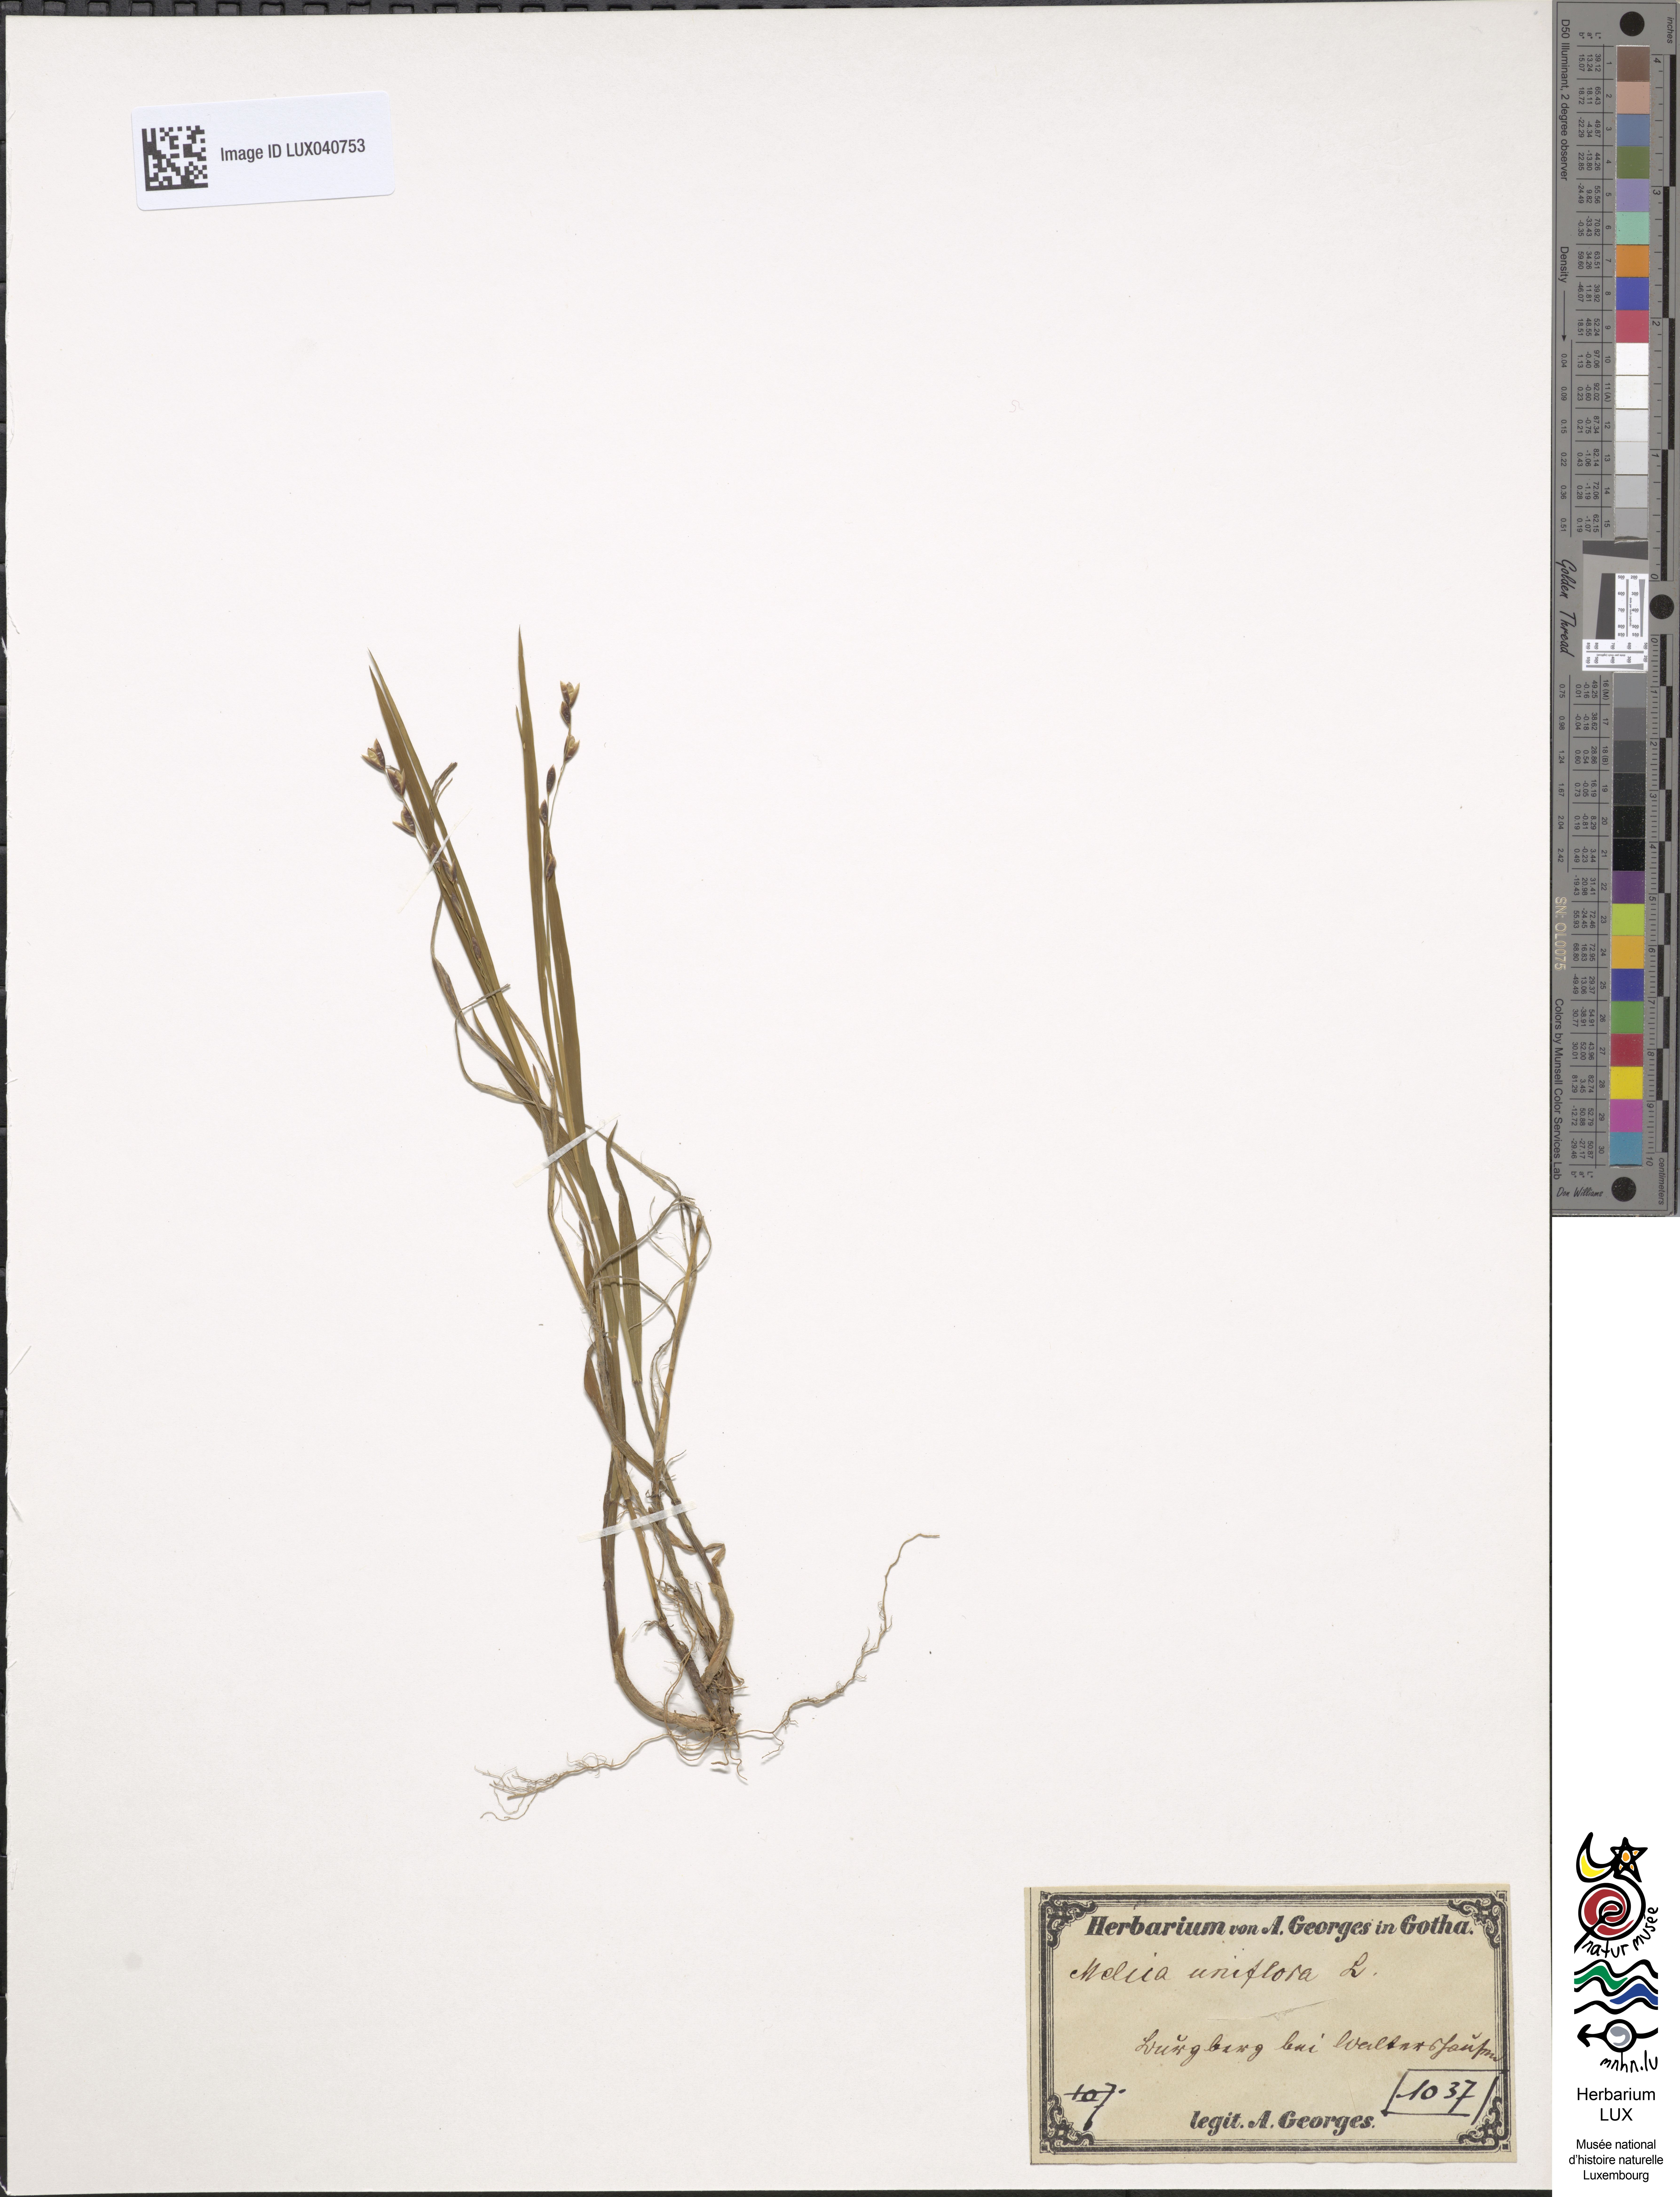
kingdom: Plantae
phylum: Tracheophyta
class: Liliopsida
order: Poales
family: Poaceae
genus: Melica
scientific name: Melica uniflora
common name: Wood melick
